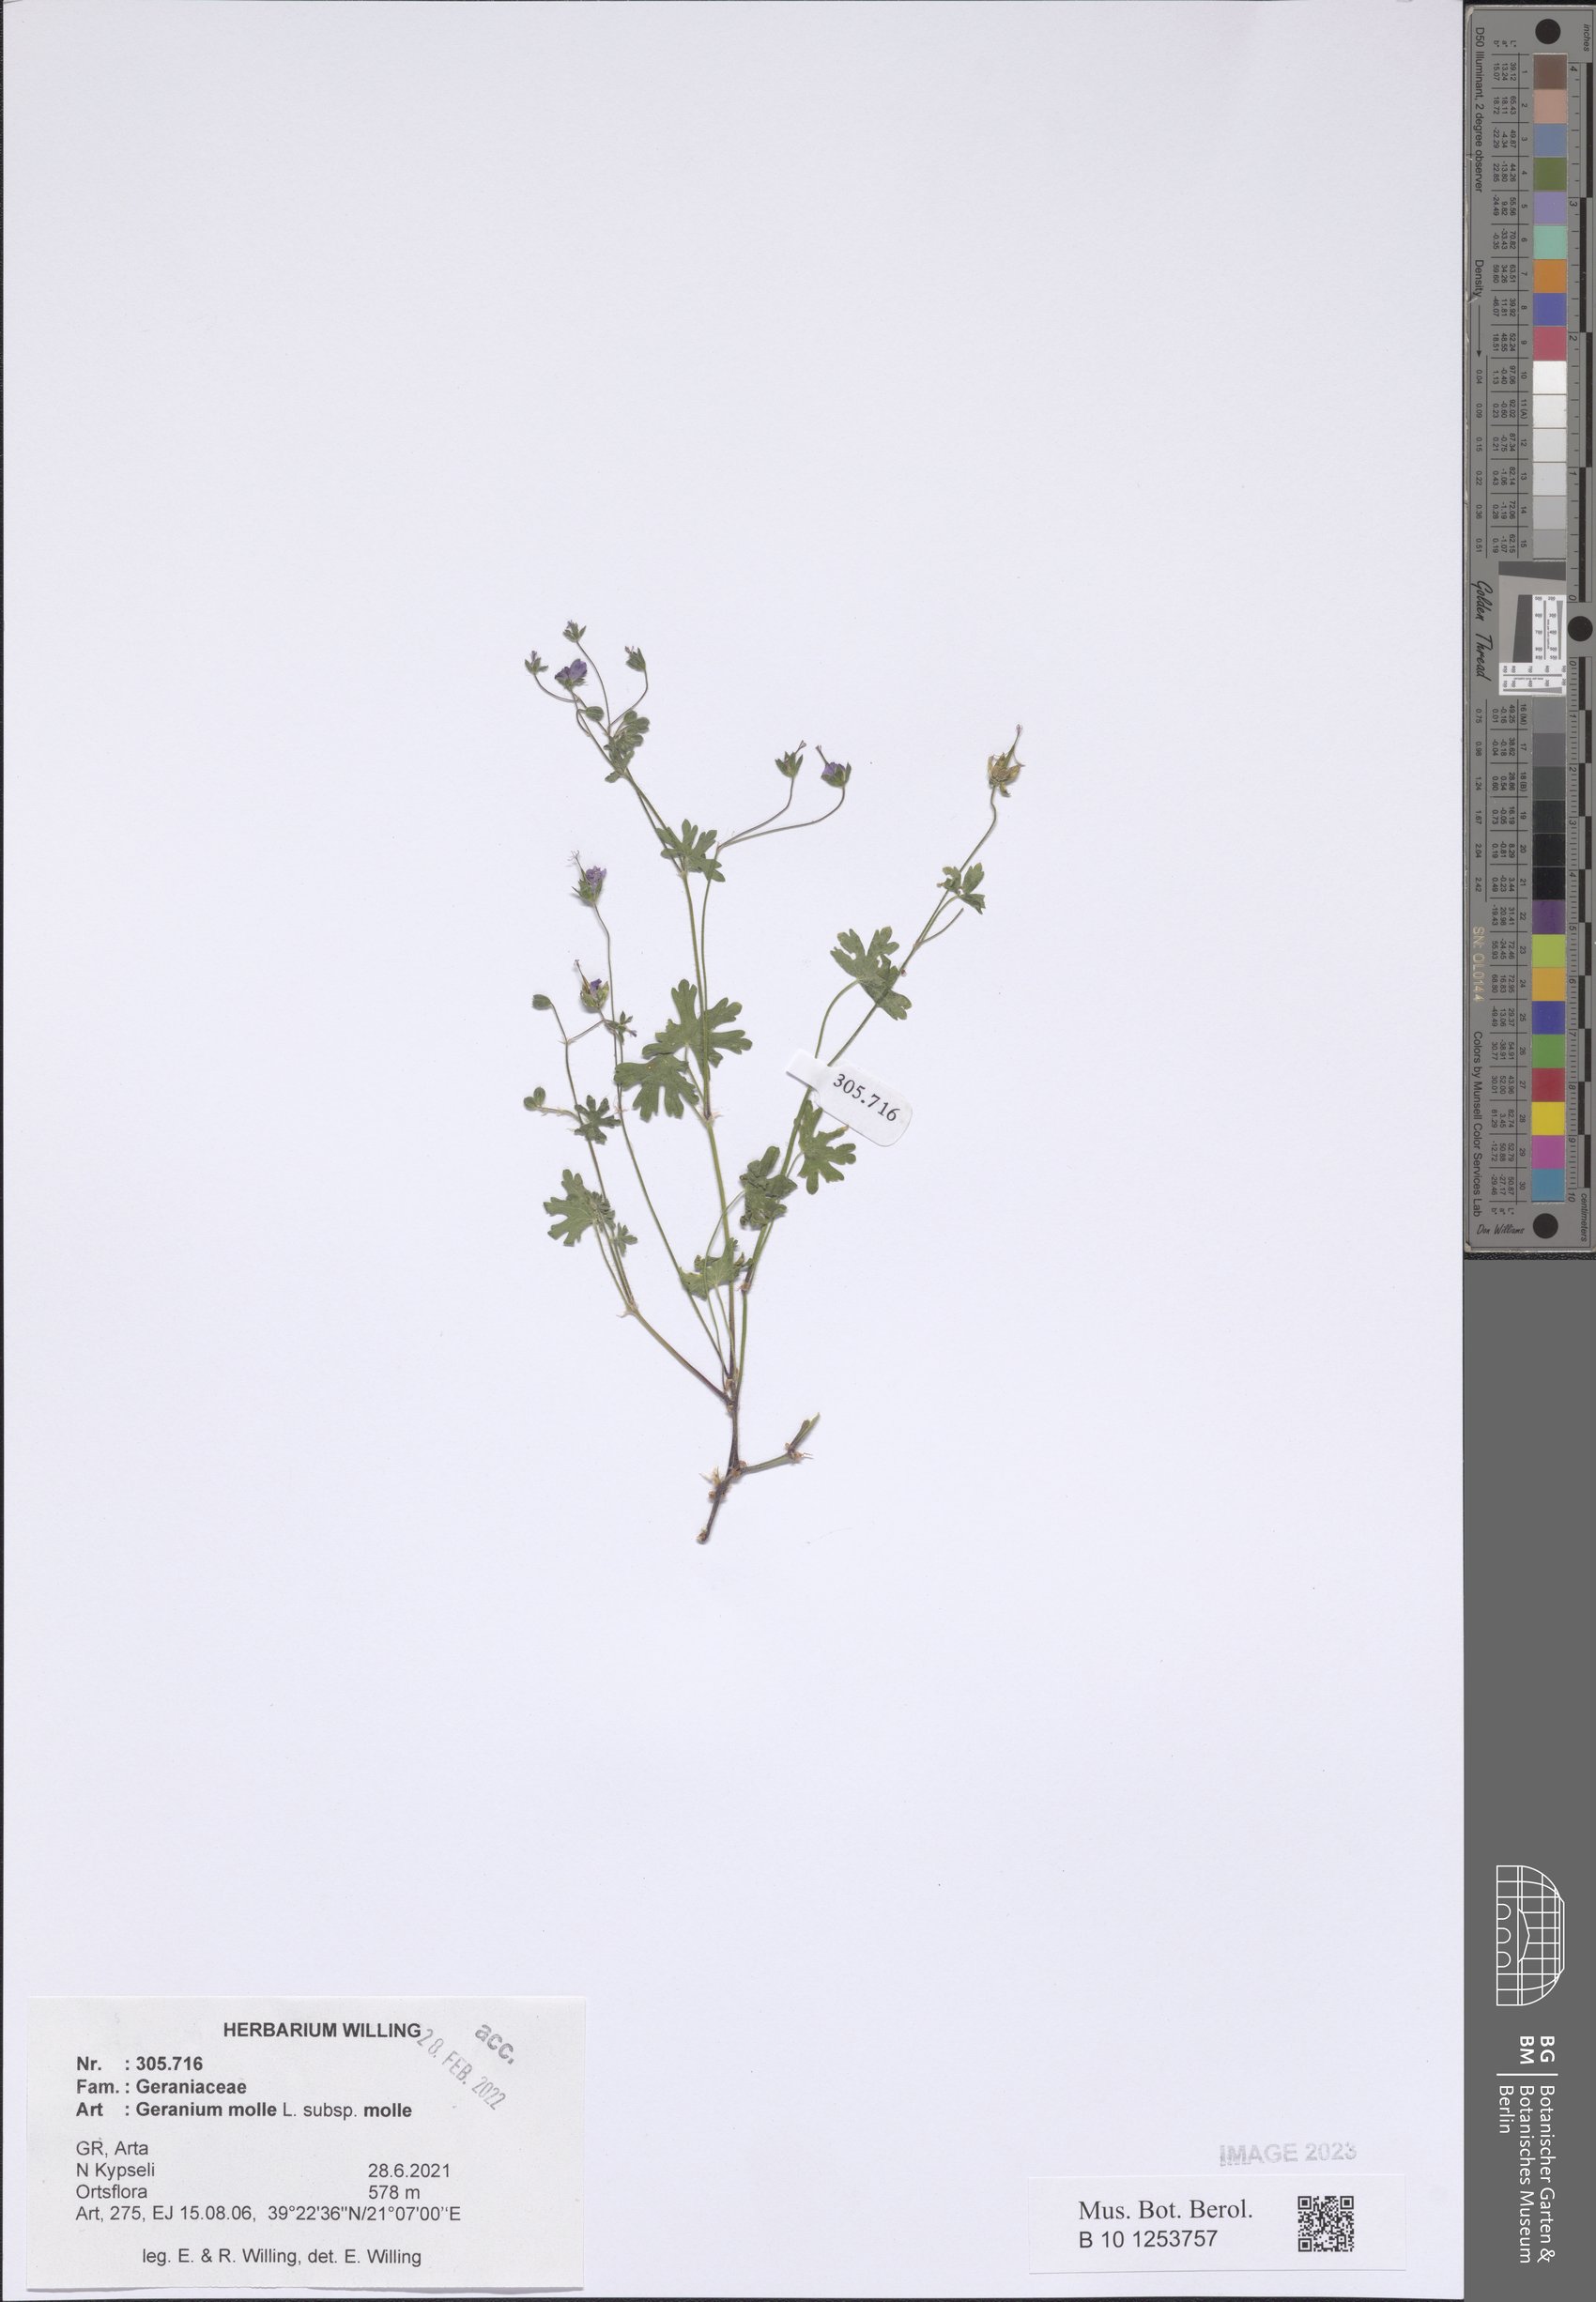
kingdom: Plantae
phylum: Tracheophyta
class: Magnoliopsida
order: Geraniales
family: Geraniaceae
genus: Geranium
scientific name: Geranium molle
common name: Dove's-foot crane's-bill
